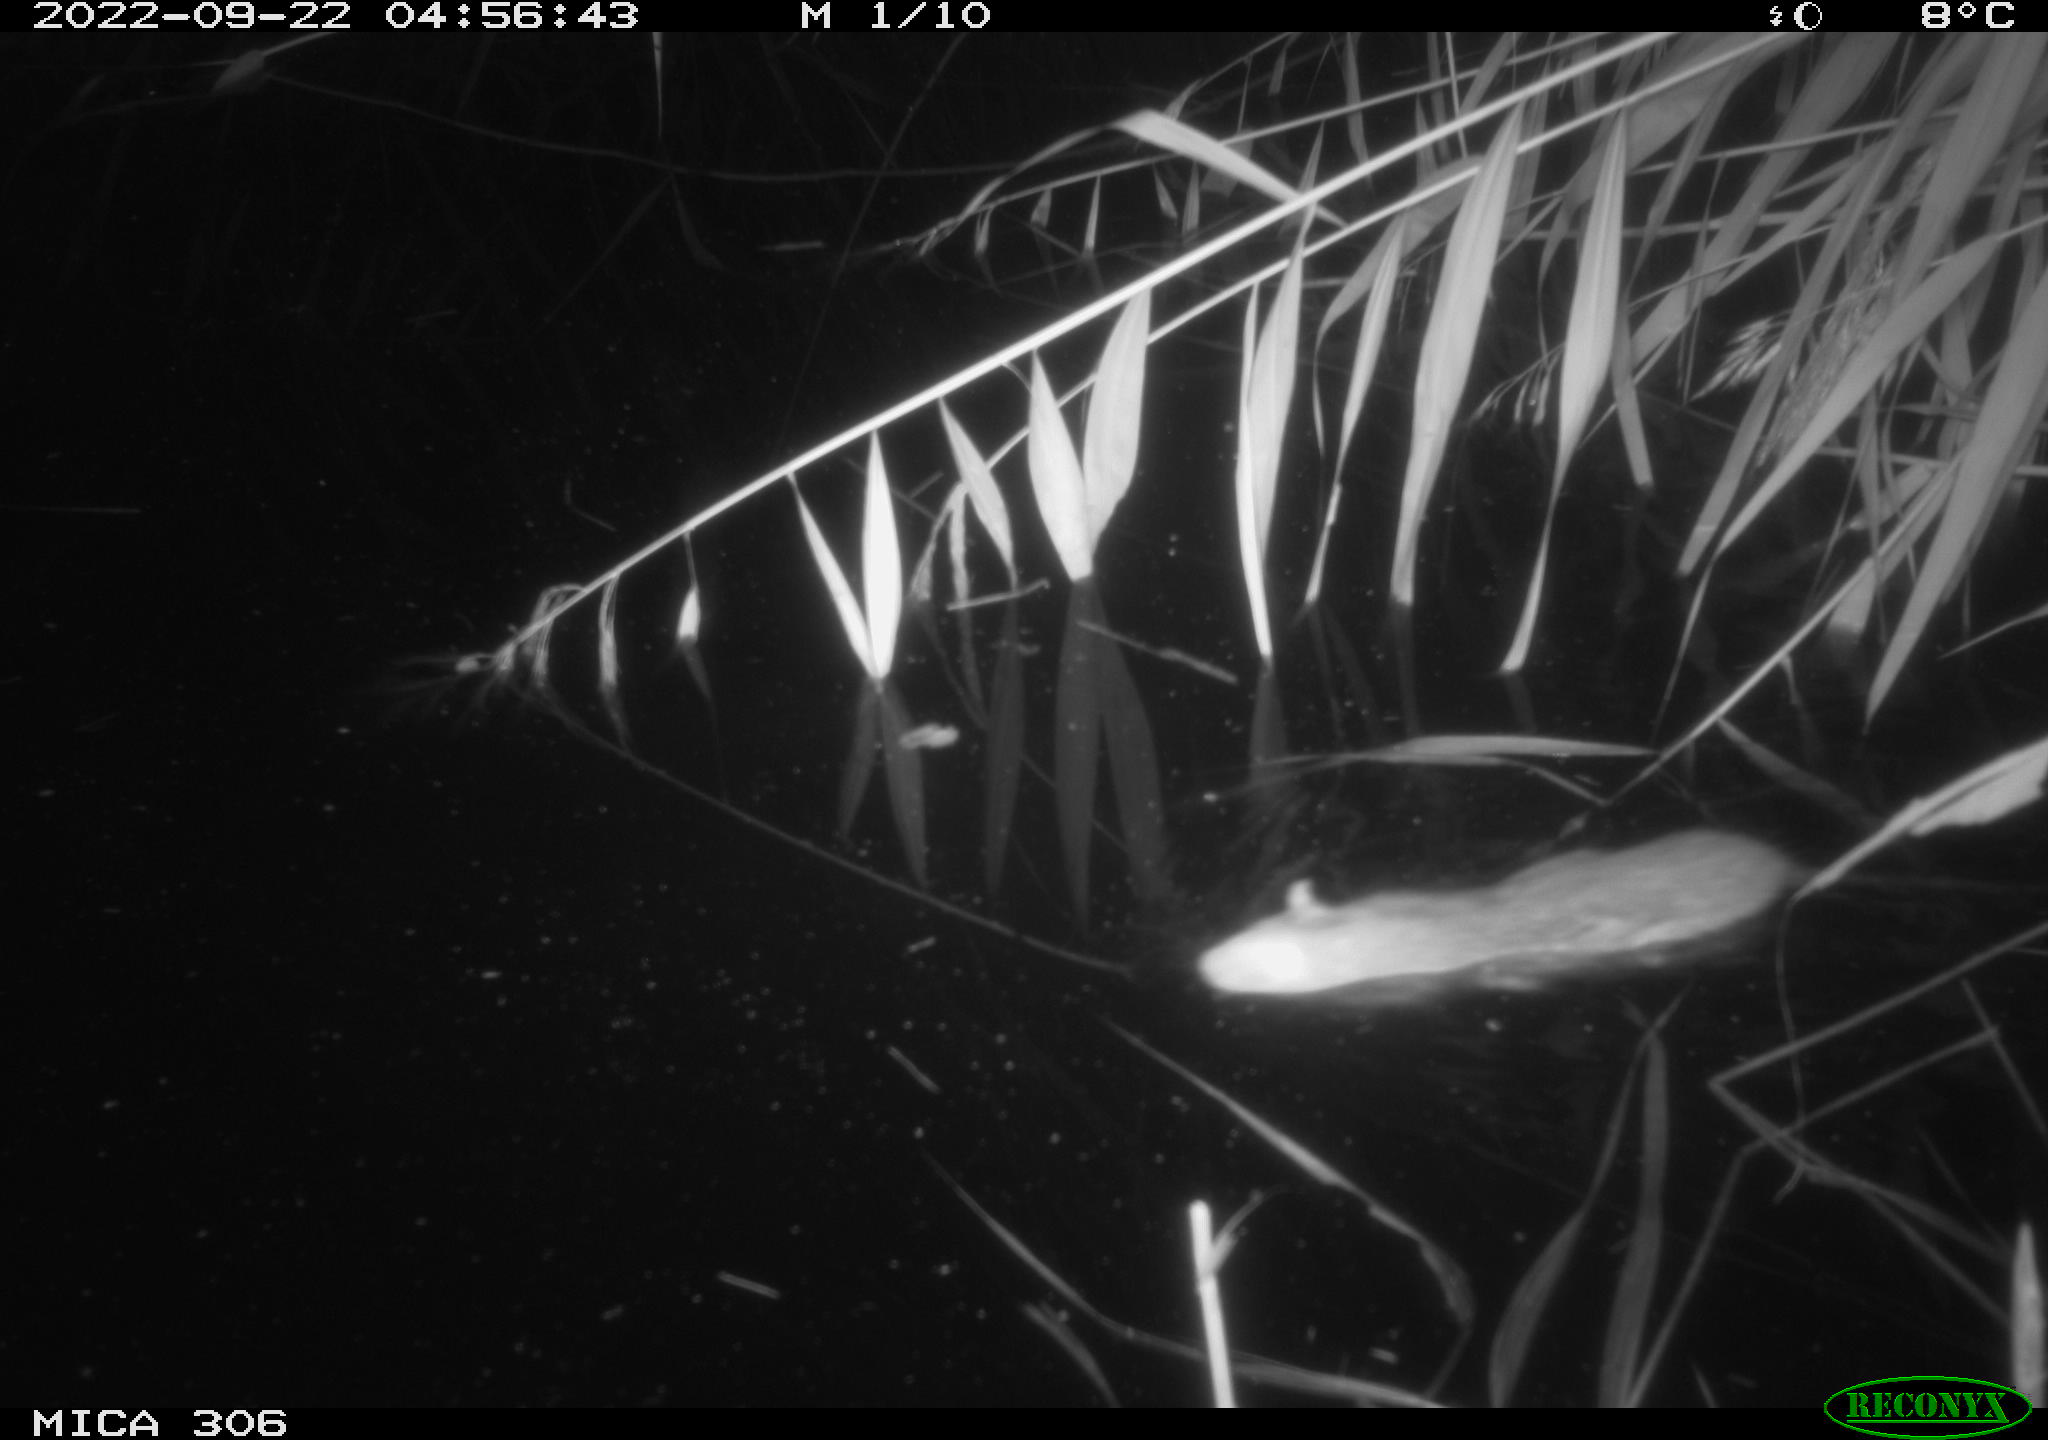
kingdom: Animalia
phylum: Chordata
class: Mammalia
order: Rodentia
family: Muridae
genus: Rattus
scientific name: Rattus norvegicus
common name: Brown rat
